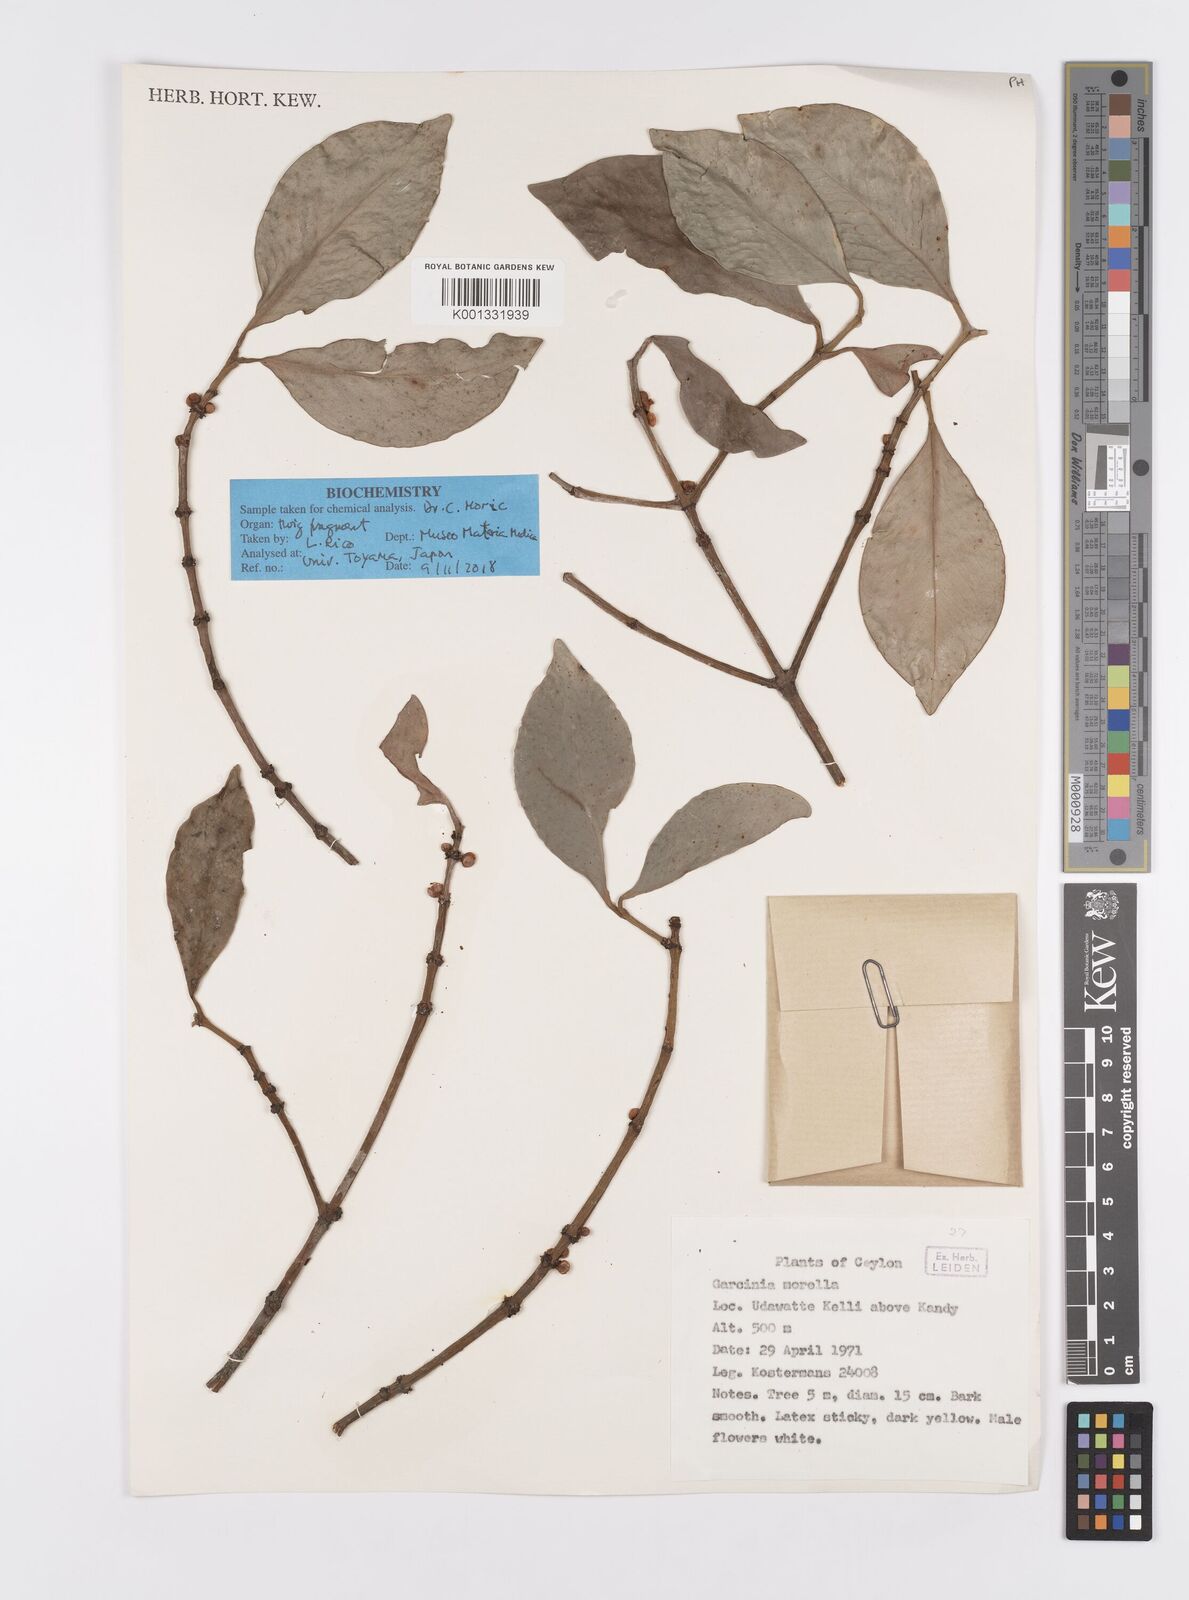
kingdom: Plantae
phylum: Tracheophyta
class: Magnoliopsida
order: Malpighiales
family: Clusiaceae
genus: Garcinia
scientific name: Garcinia morella
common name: Indian gamboge-tree
